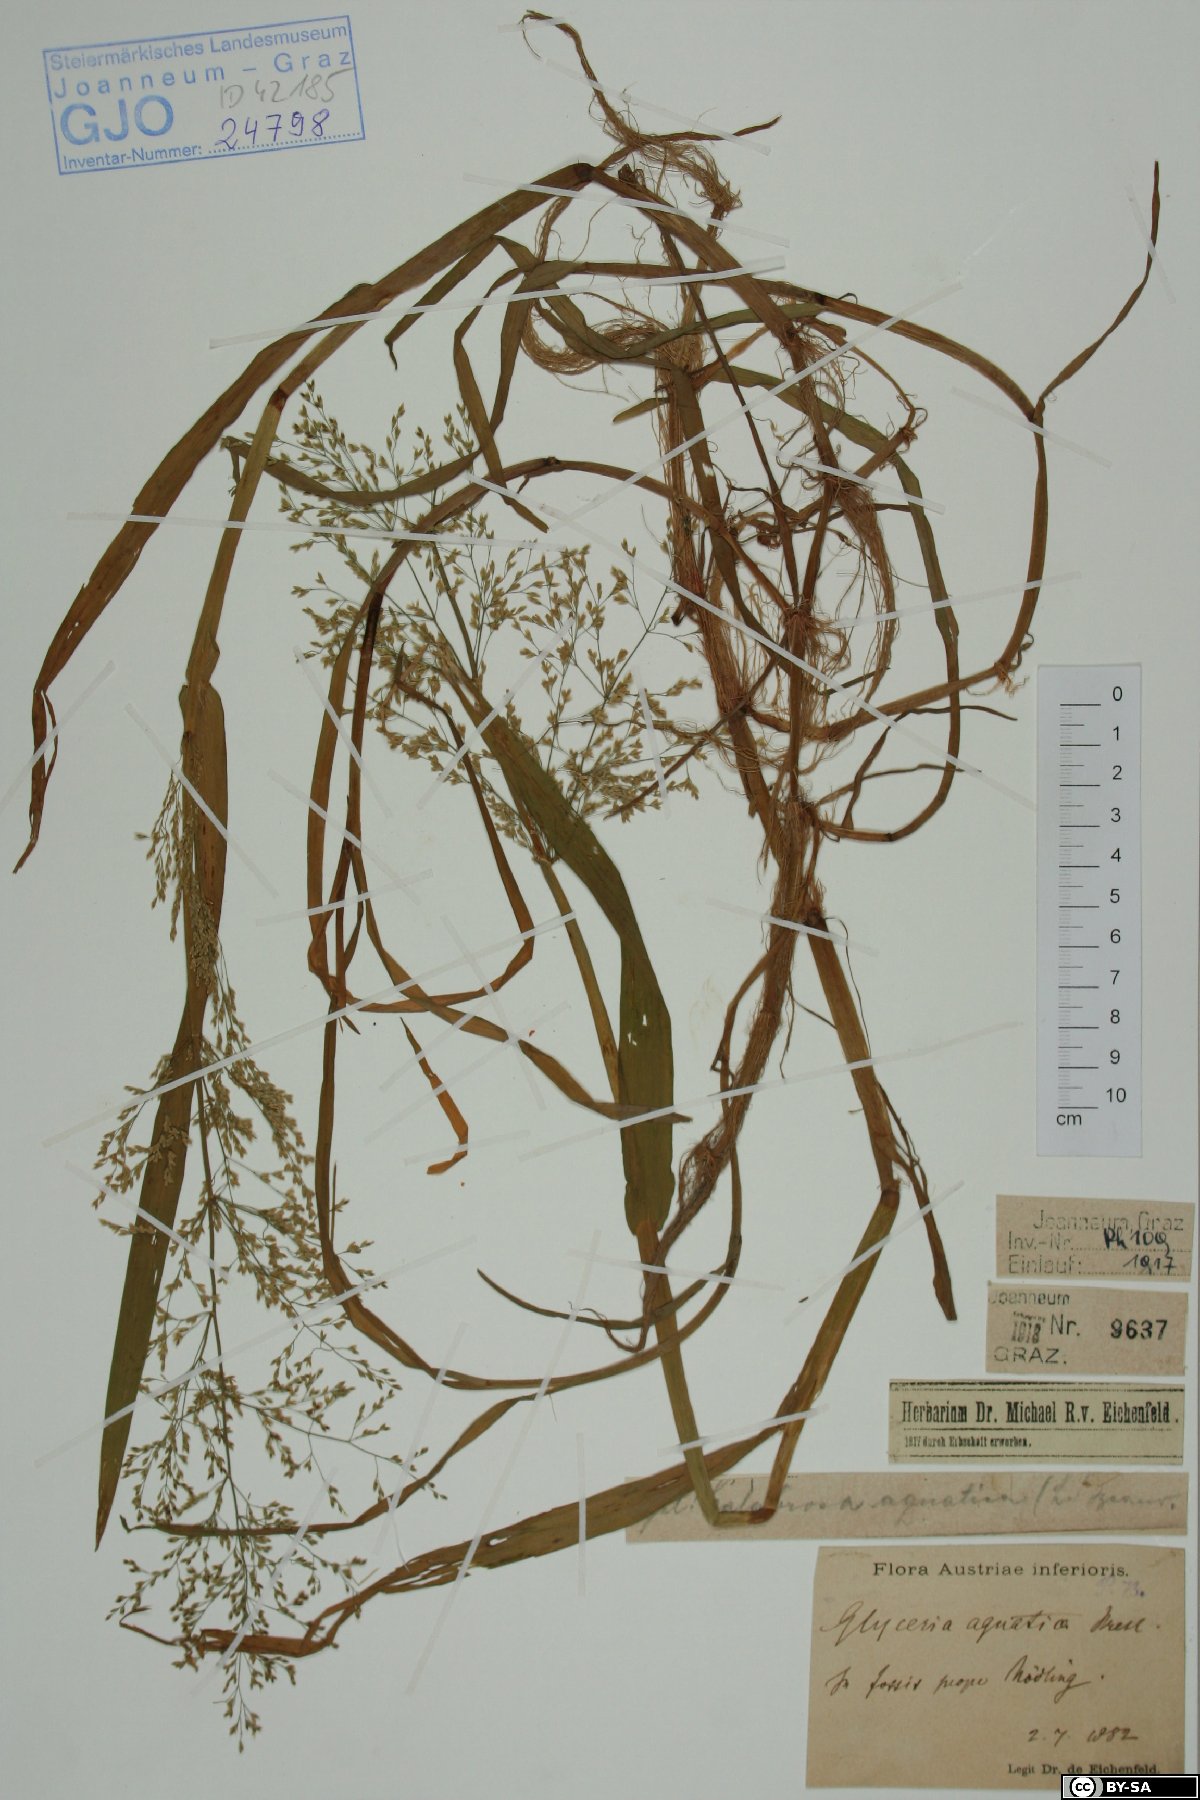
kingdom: Plantae
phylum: Tracheophyta
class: Liliopsida
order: Poales
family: Poaceae
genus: Catabrosa
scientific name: Catabrosa aquatica
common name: Whorl-grass
